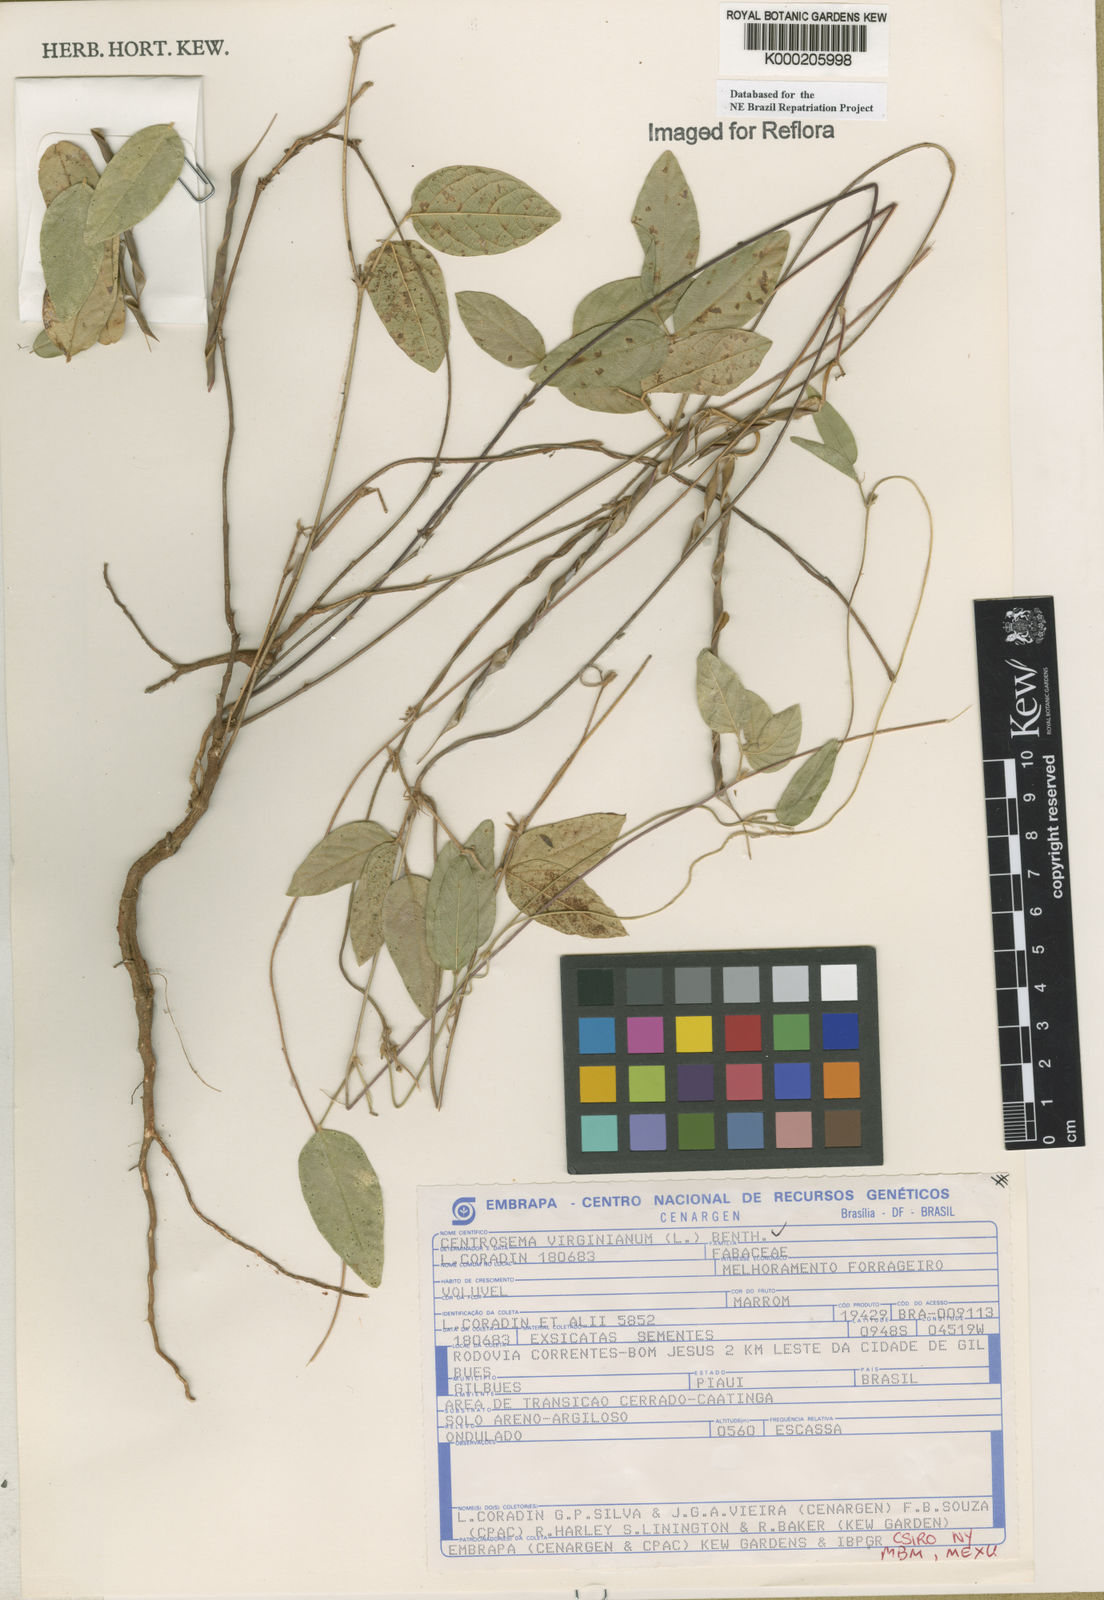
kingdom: Plantae
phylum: Tracheophyta
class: Magnoliopsida
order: Fabales
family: Fabaceae
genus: Centrosema
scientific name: Centrosema virginianum
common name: Butterfly-pea
